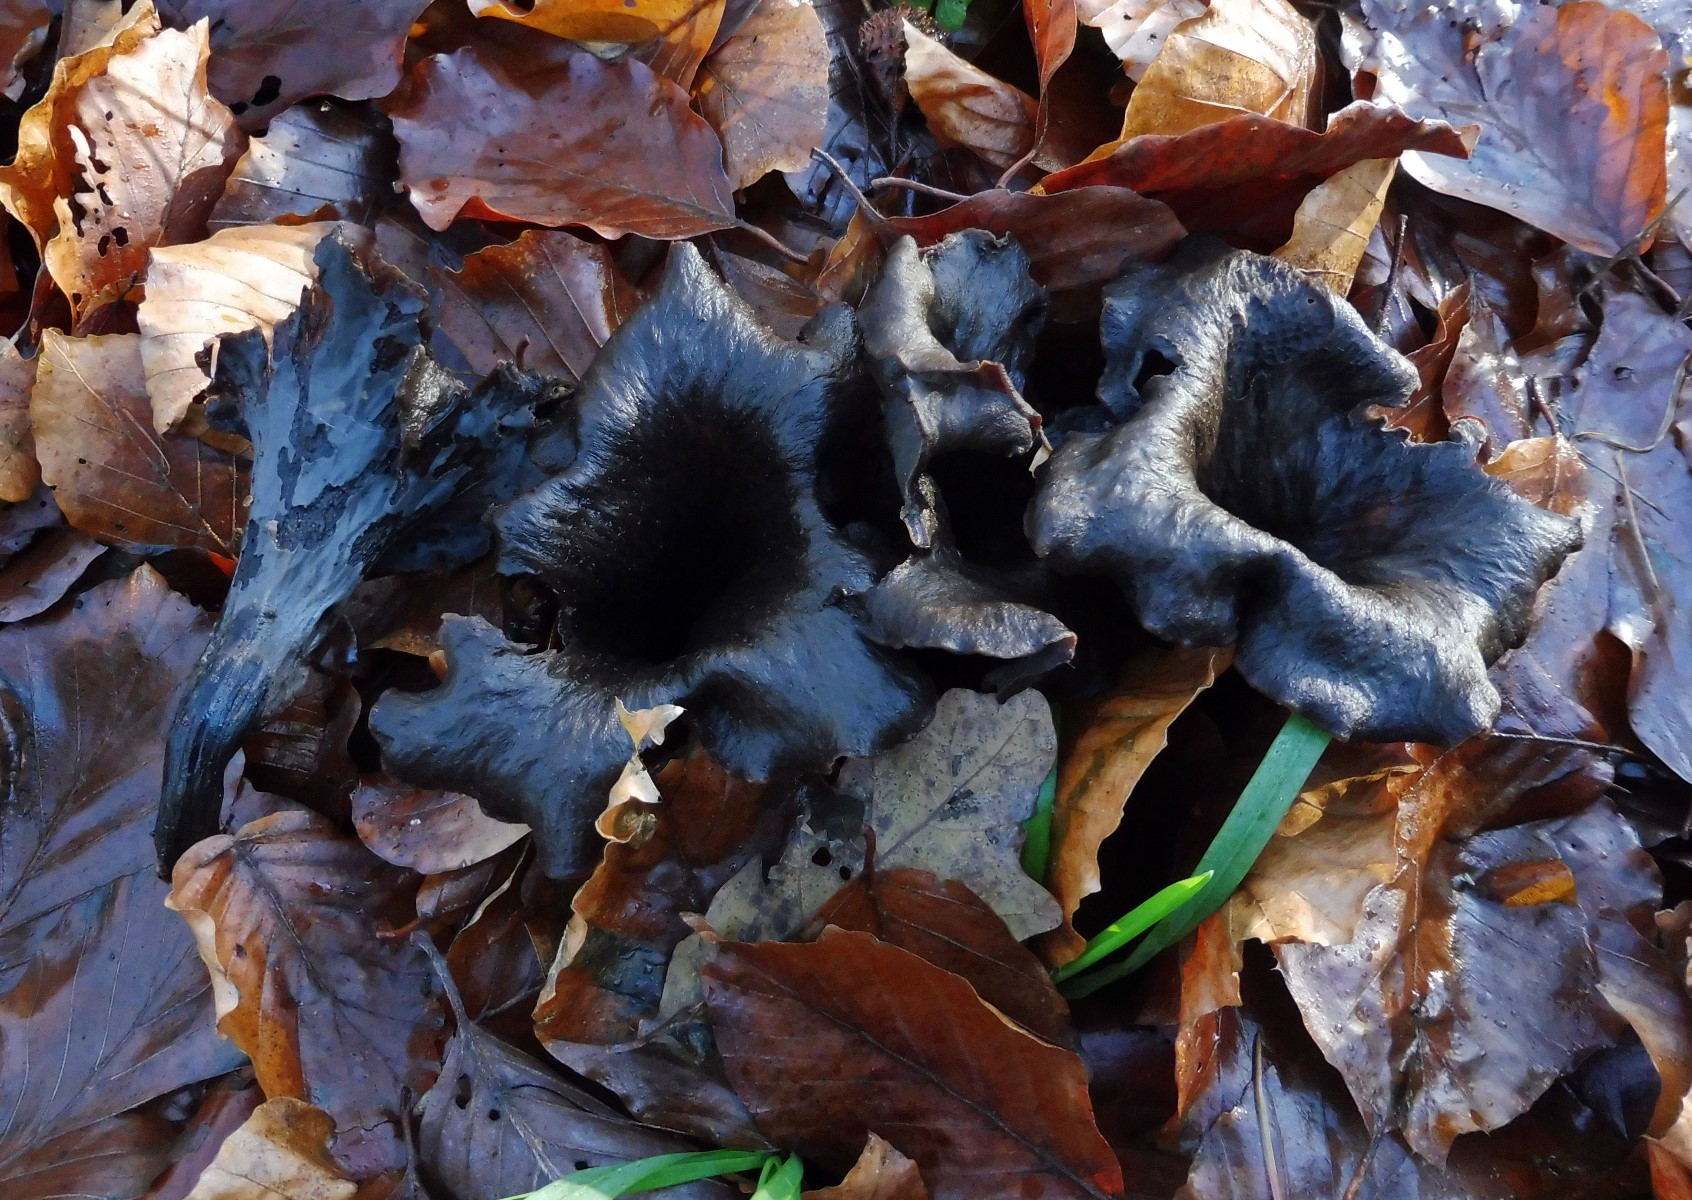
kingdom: Fungi
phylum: Basidiomycota
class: Agaricomycetes
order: Cantharellales
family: Hydnaceae
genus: Craterellus
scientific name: Craterellus cornucopioides
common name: trompetsvamp
